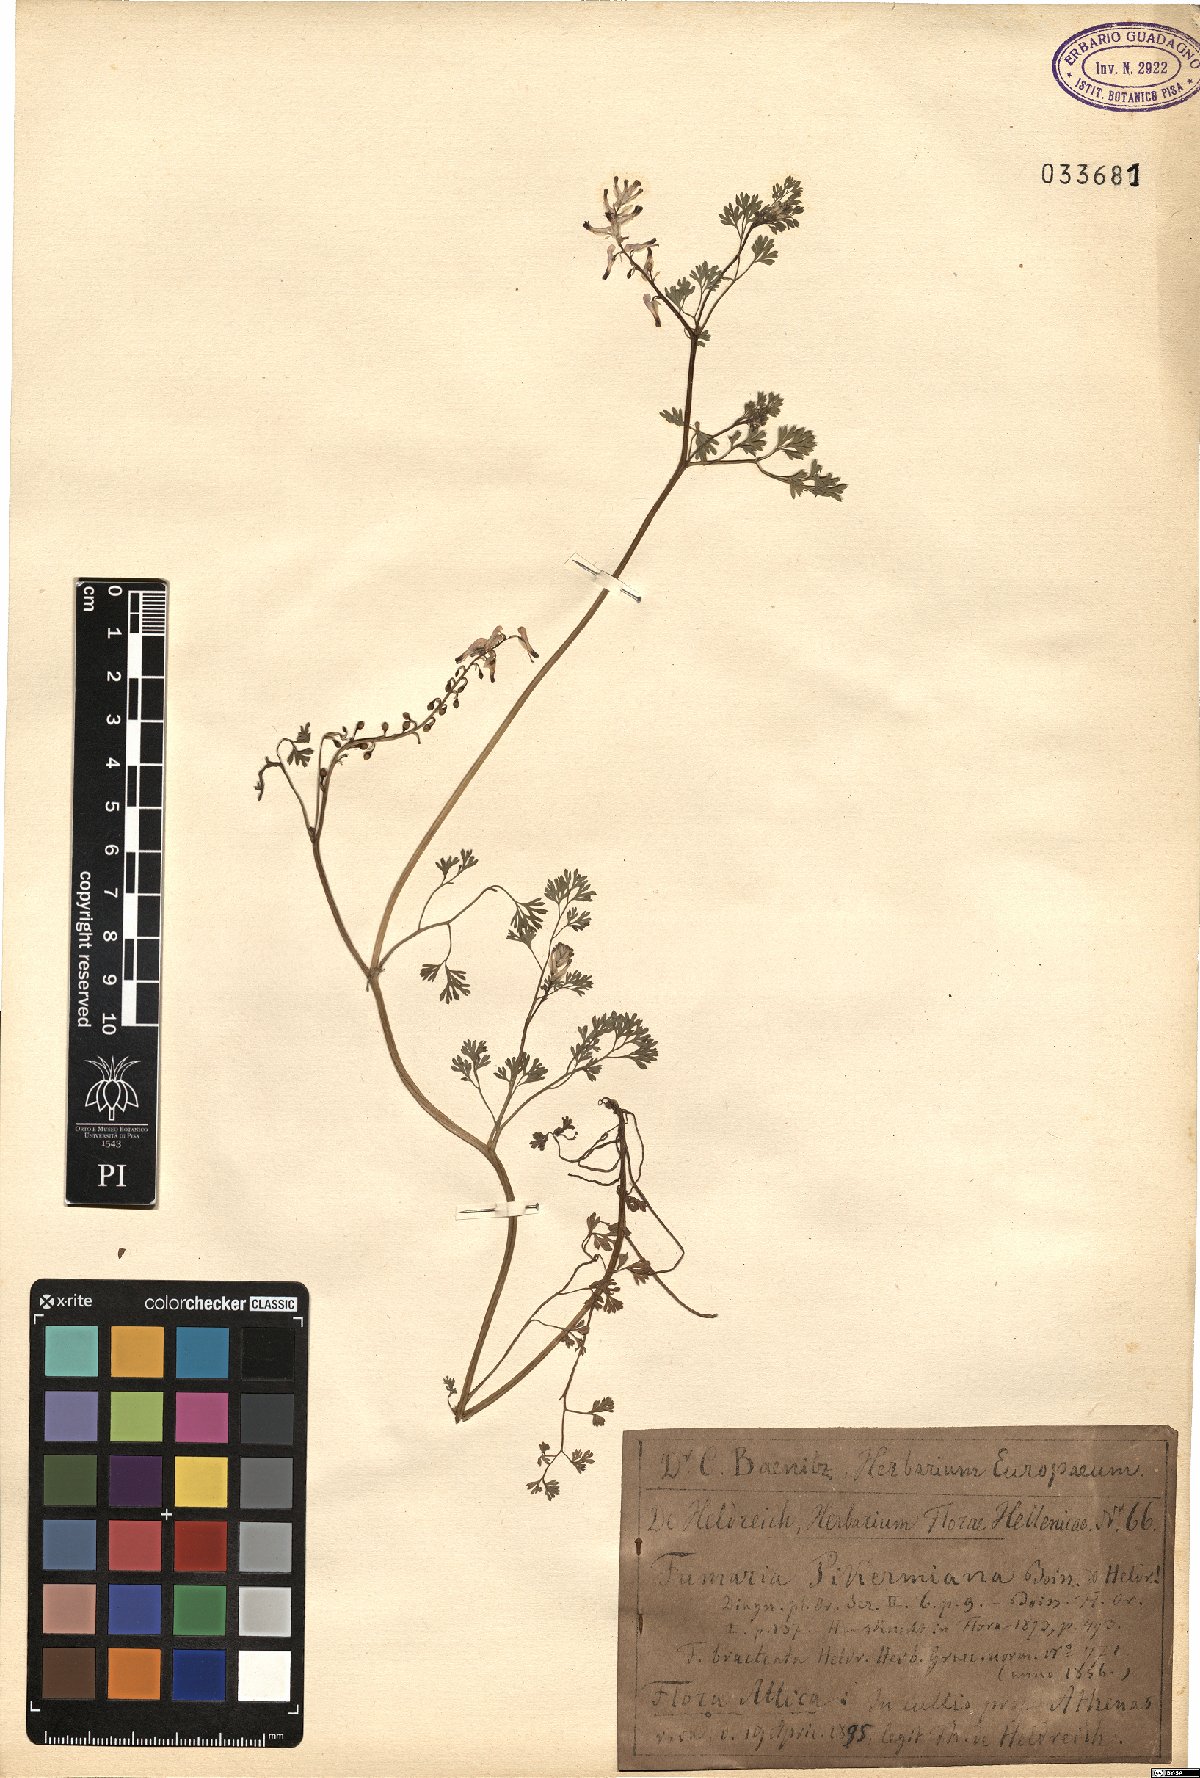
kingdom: Plantae
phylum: Tracheophyta
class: Magnoliopsida
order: Ranunculales
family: Papaveraceae
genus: Fumaria
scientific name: Fumaria petteri
